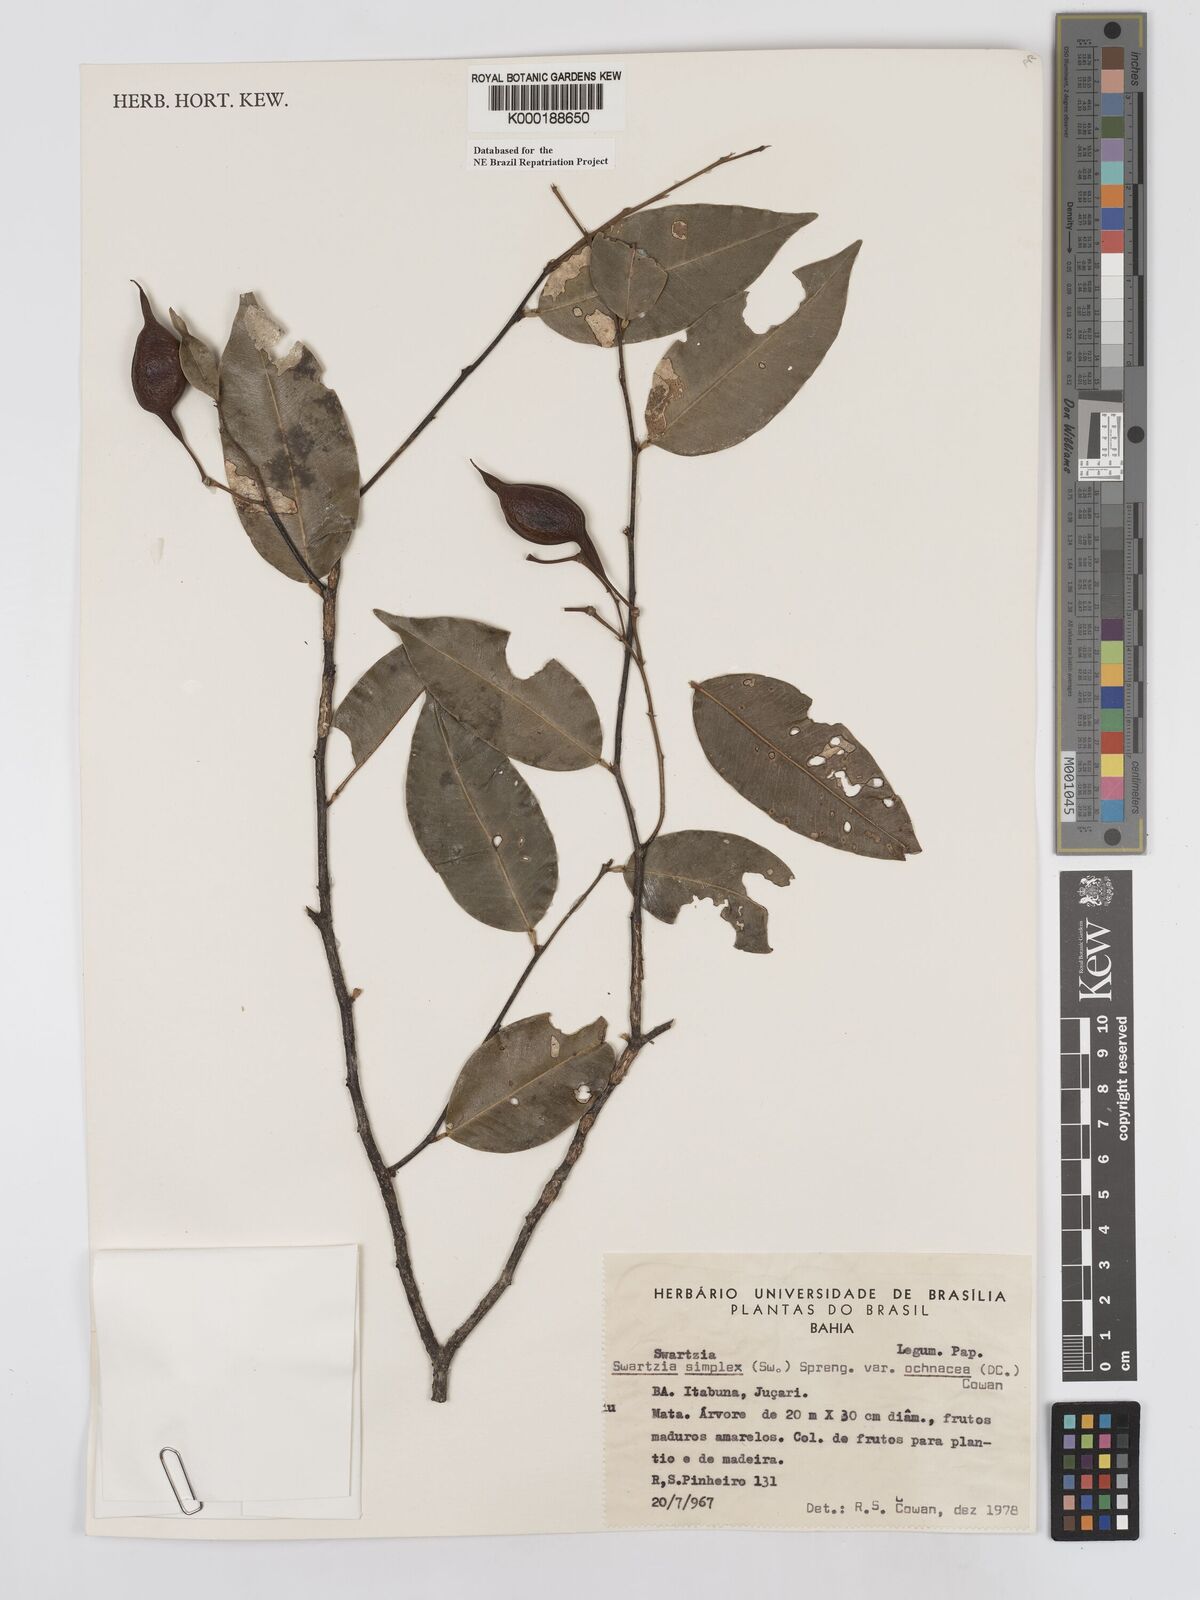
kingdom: Plantae
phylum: Tracheophyta
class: Magnoliopsida
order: Fabales
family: Fabaceae
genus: Swartzia
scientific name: Swartzia simplex
